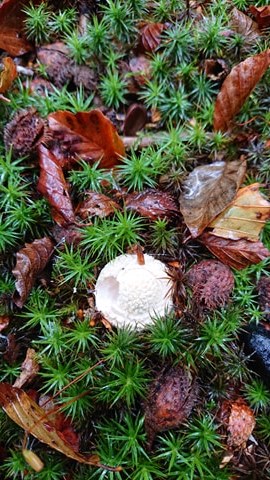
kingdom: Fungi
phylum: Basidiomycota
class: Agaricomycetes
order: Agaricales
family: Amanitaceae
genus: Amanita
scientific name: Amanita
